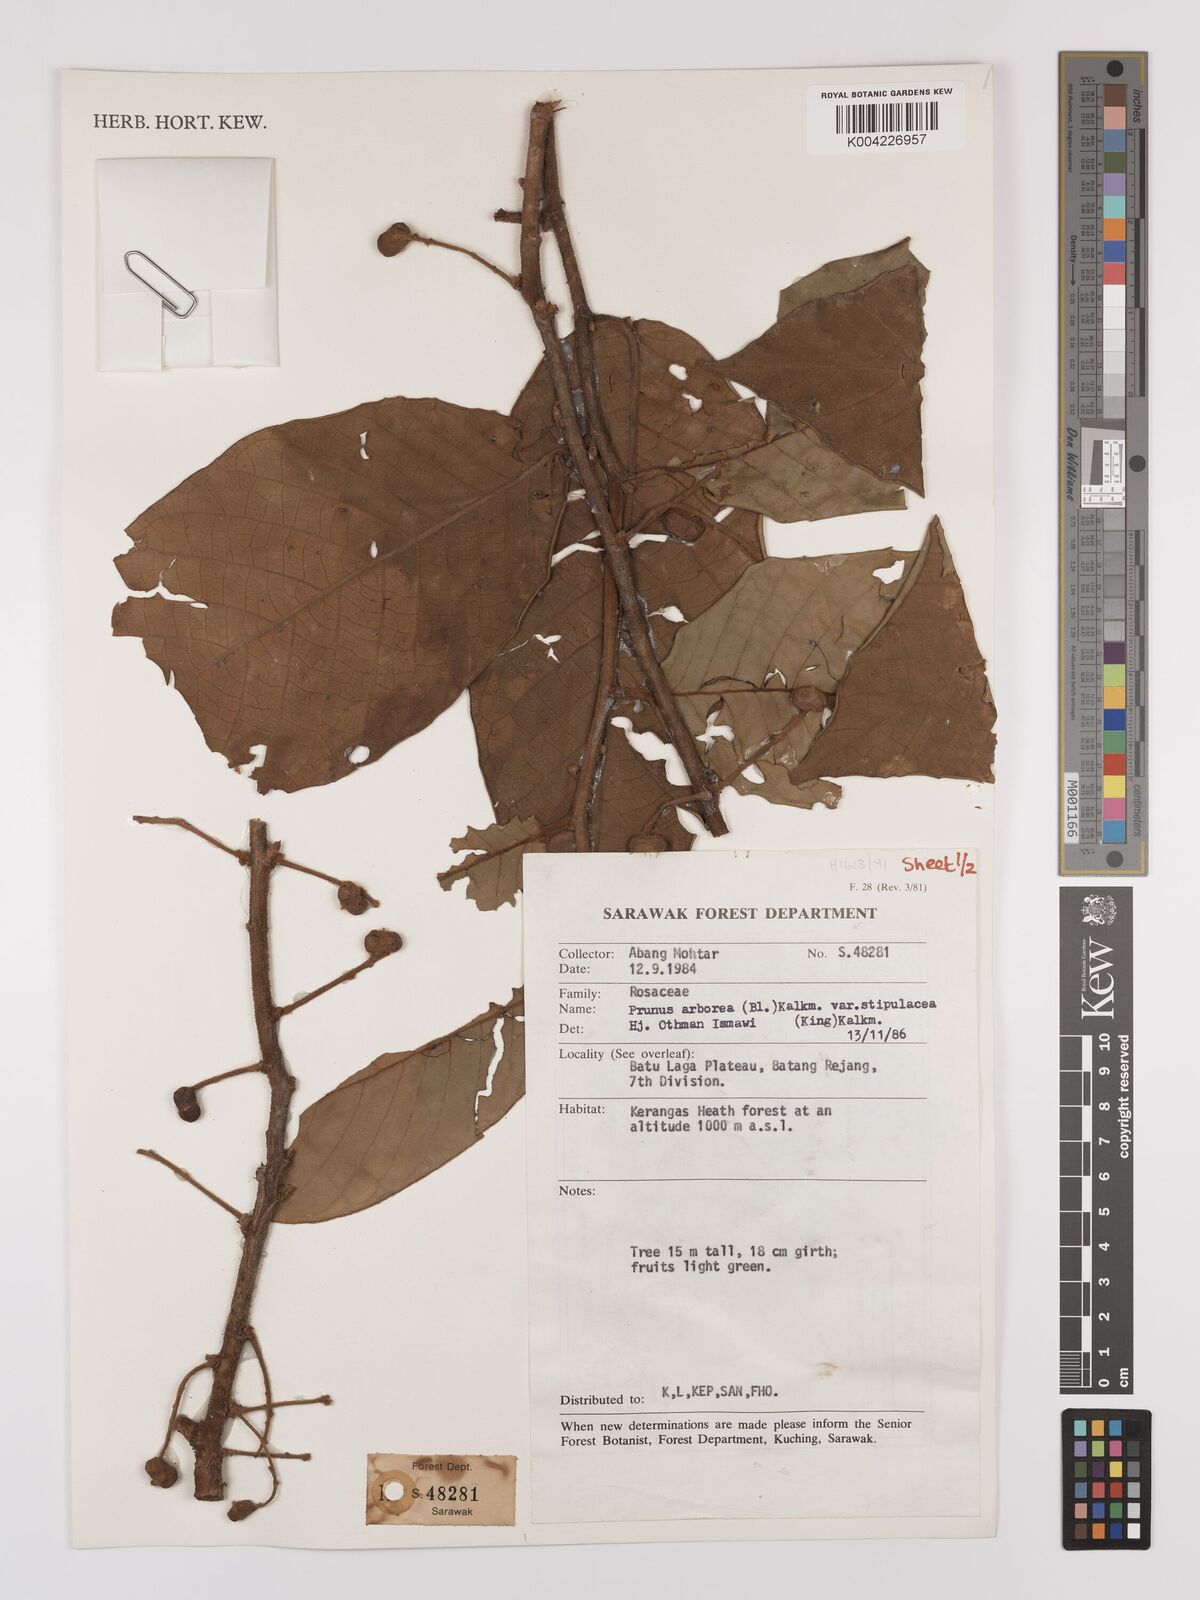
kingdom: Plantae
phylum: Tracheophyta
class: Magnoliopsida
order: Rosales
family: Rosaceae
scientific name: Rosaceae
